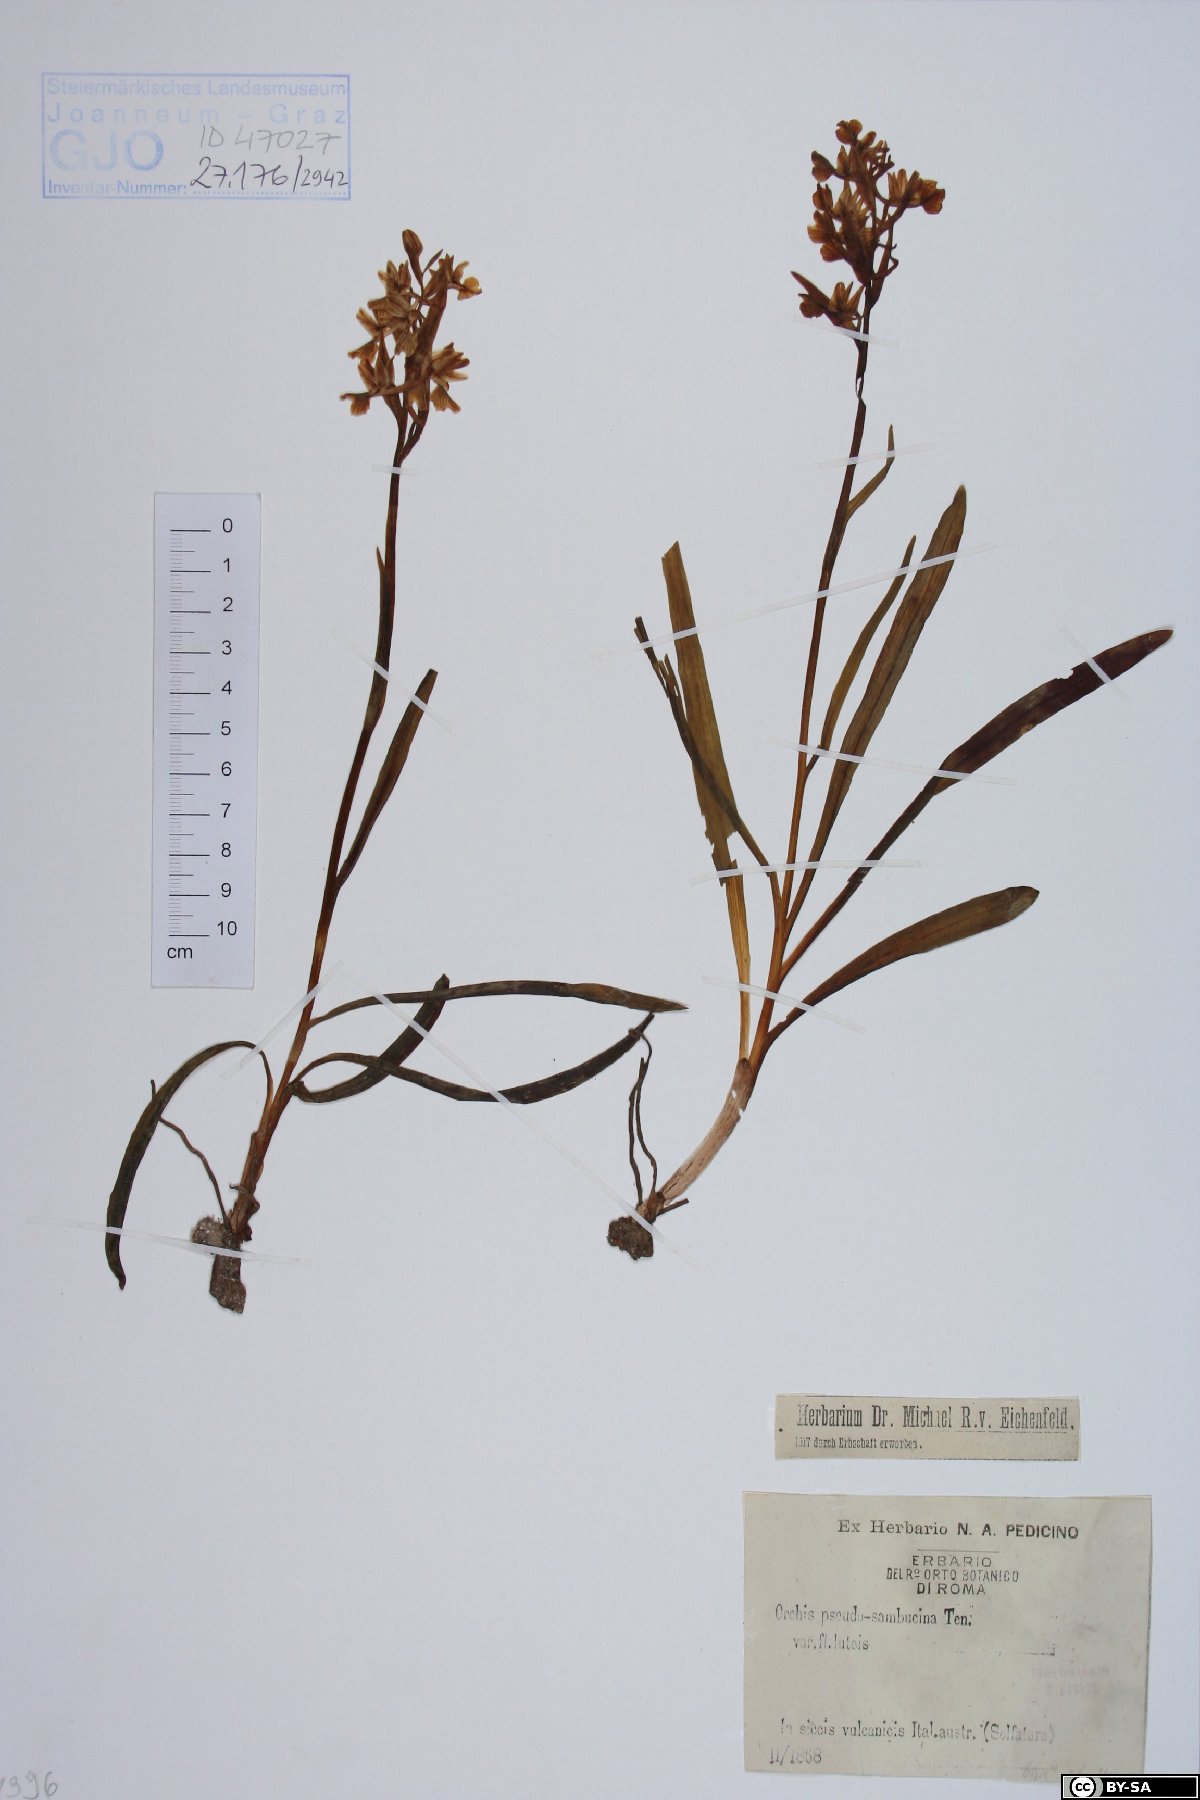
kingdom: Plantae
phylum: Tracheophyta
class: Liliopsida
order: Asparagales
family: Orchidaceae
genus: Dactylorhiza
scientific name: Dactylorhiza romana
